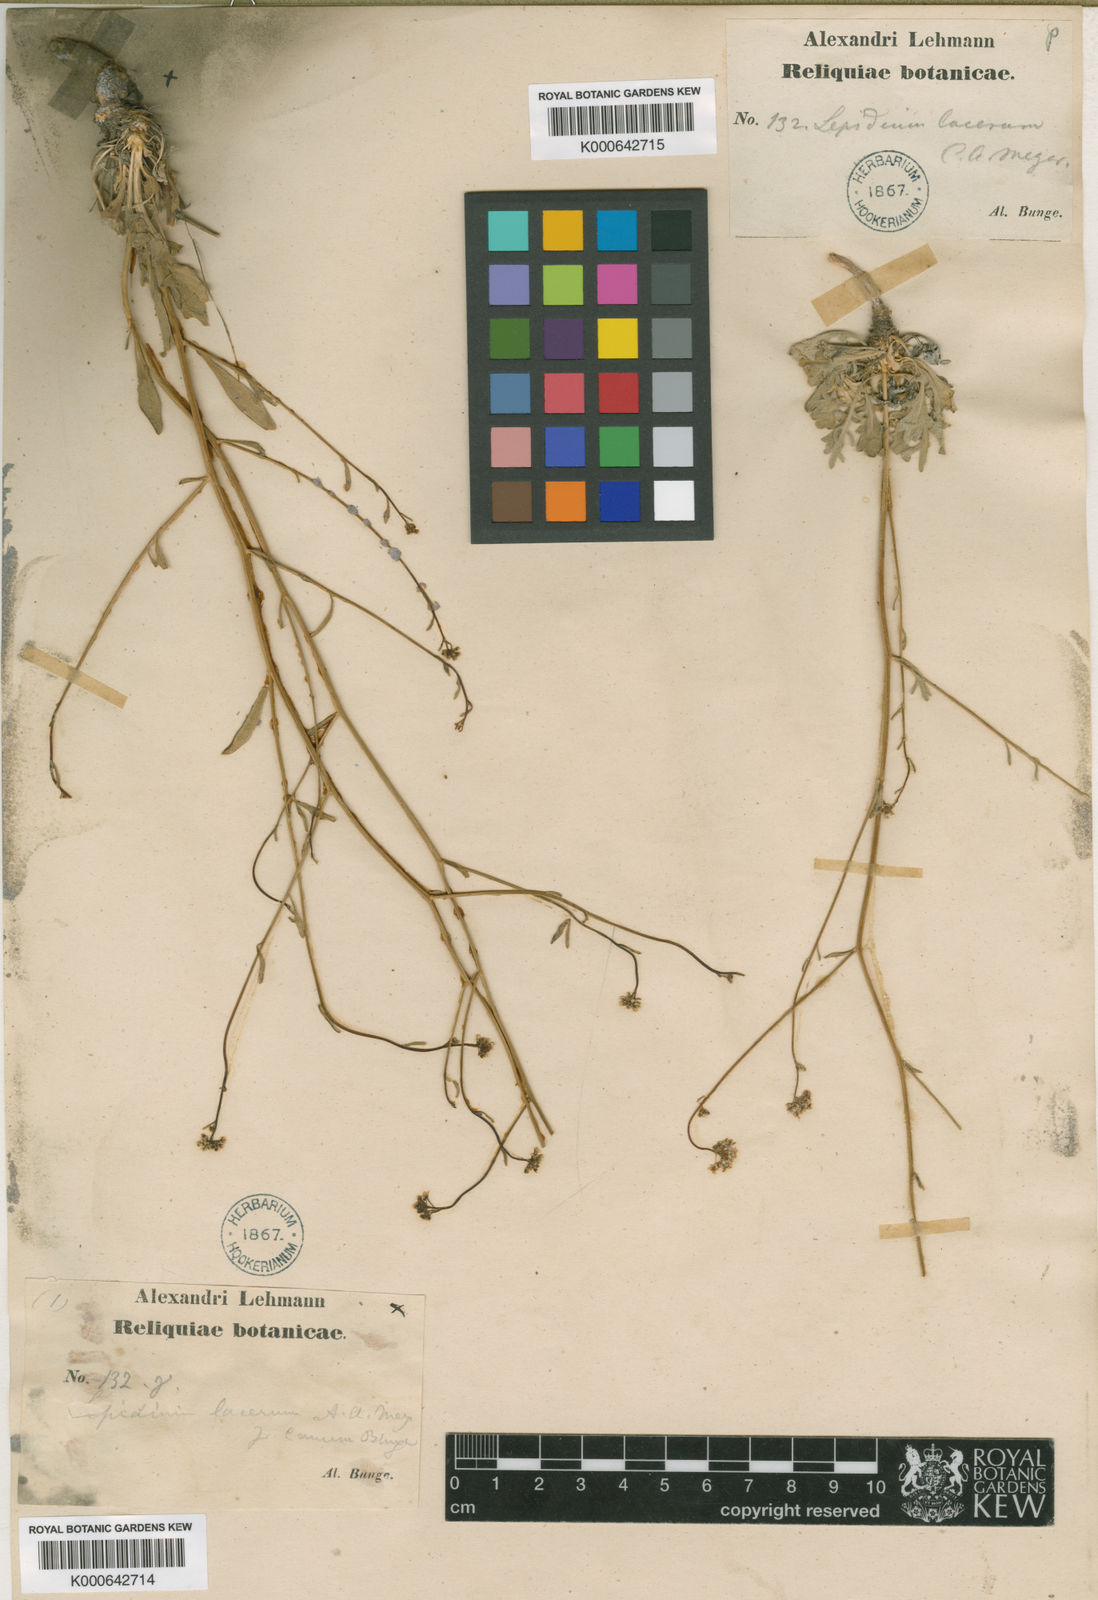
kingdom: Plantae
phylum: Tracheophyta
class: Magnoliopsida
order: Brassicales
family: Brassicaceae
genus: Lepidium
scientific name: Lepidium lacerum
